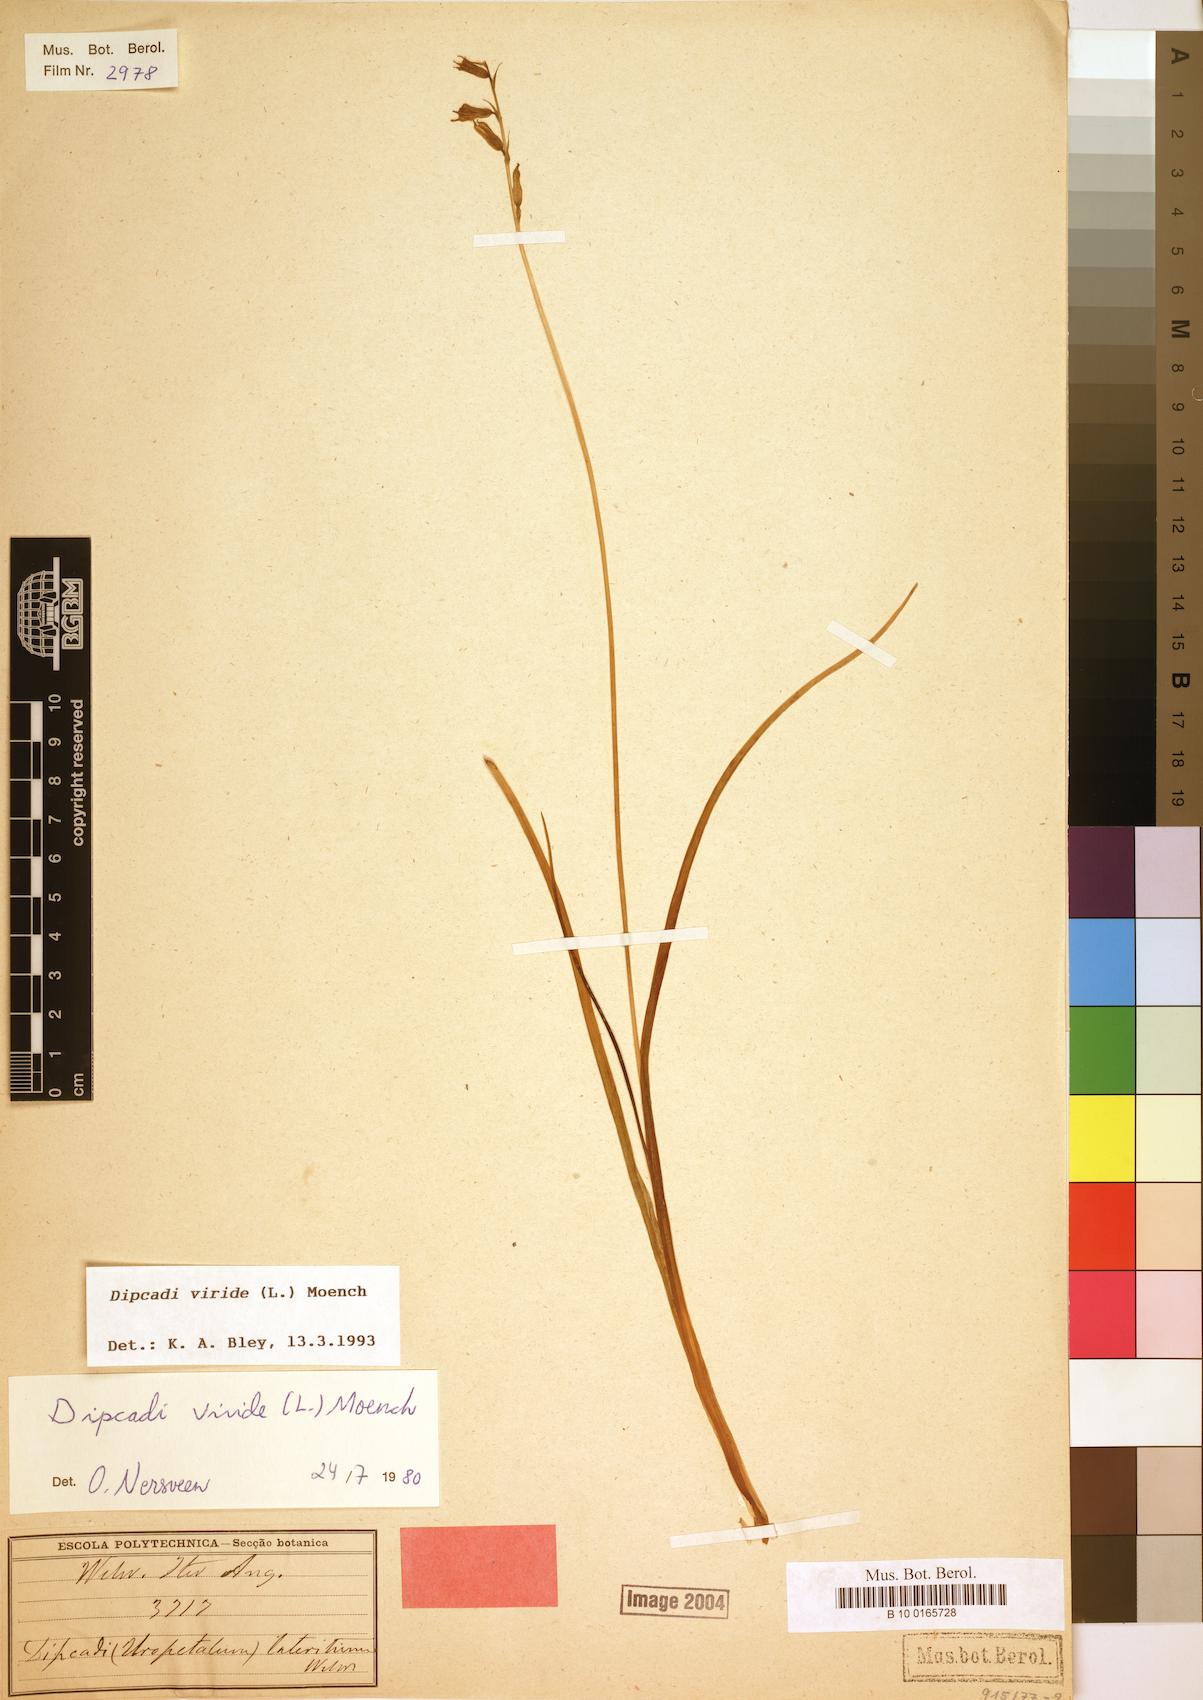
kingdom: Plantae
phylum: Tracheophyta
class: Liliopsida
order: Asparagales
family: Asparagaceae
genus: Dipcadi
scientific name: Dipcadi viride
